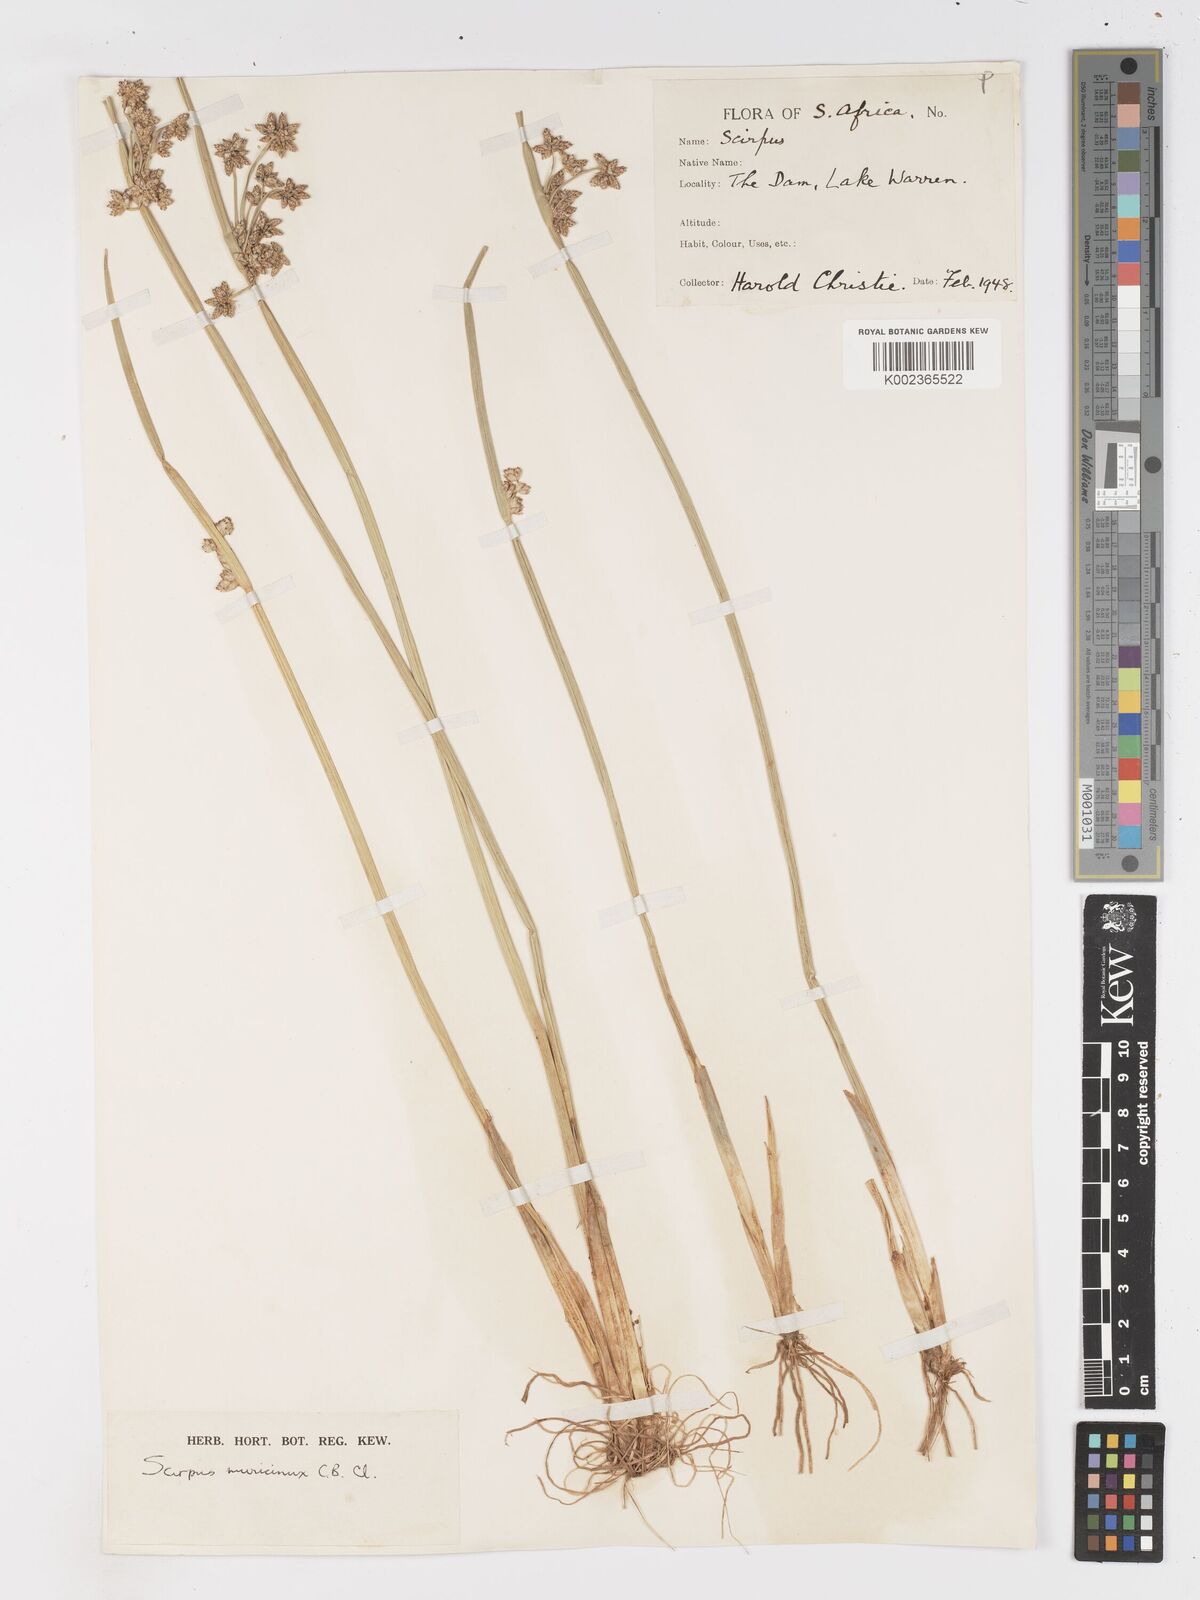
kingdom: Plantae
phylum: Tracheophyta
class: Liliopsida
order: Poales
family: Cyperaceae
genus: Schoenoplectiella
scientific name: Schoenoplectiella muricinux
